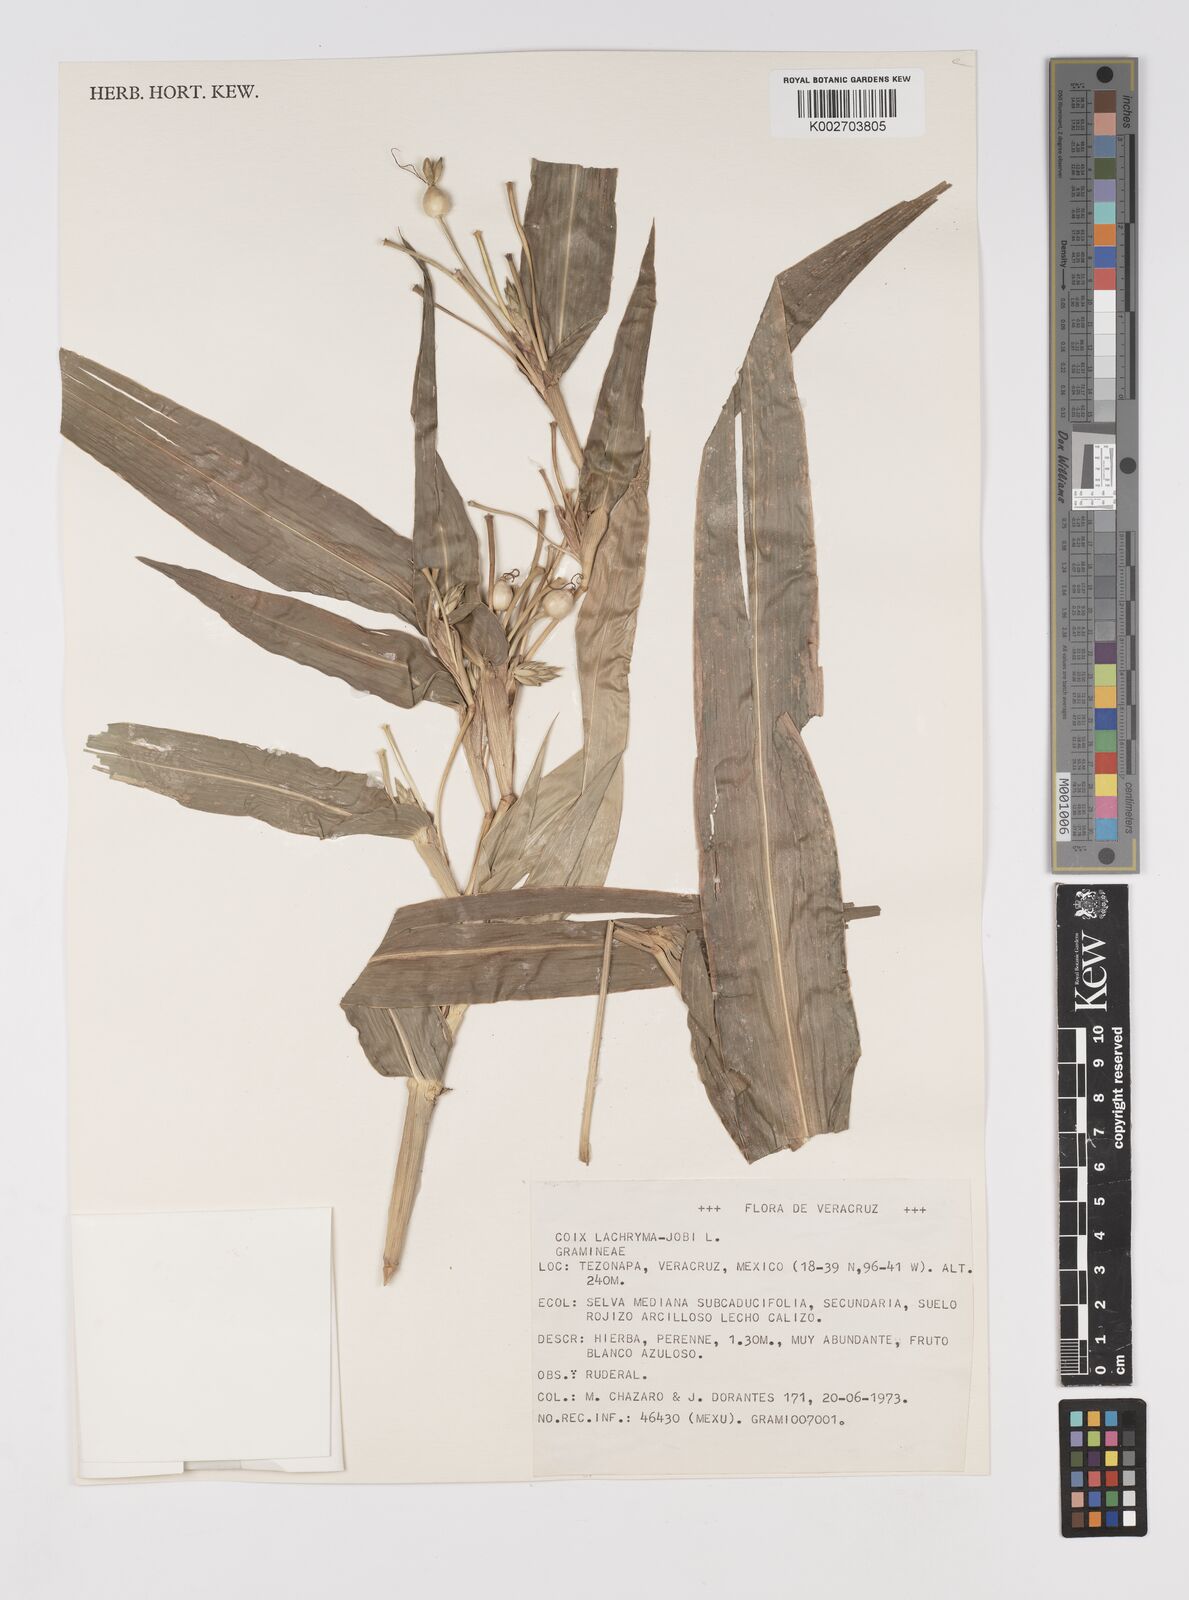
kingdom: Plantae
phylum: Tracheophyta
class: Liliopsida
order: Poales
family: Poaceae
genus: Coix
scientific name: Coix lacryma-jobi
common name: Job's tears
